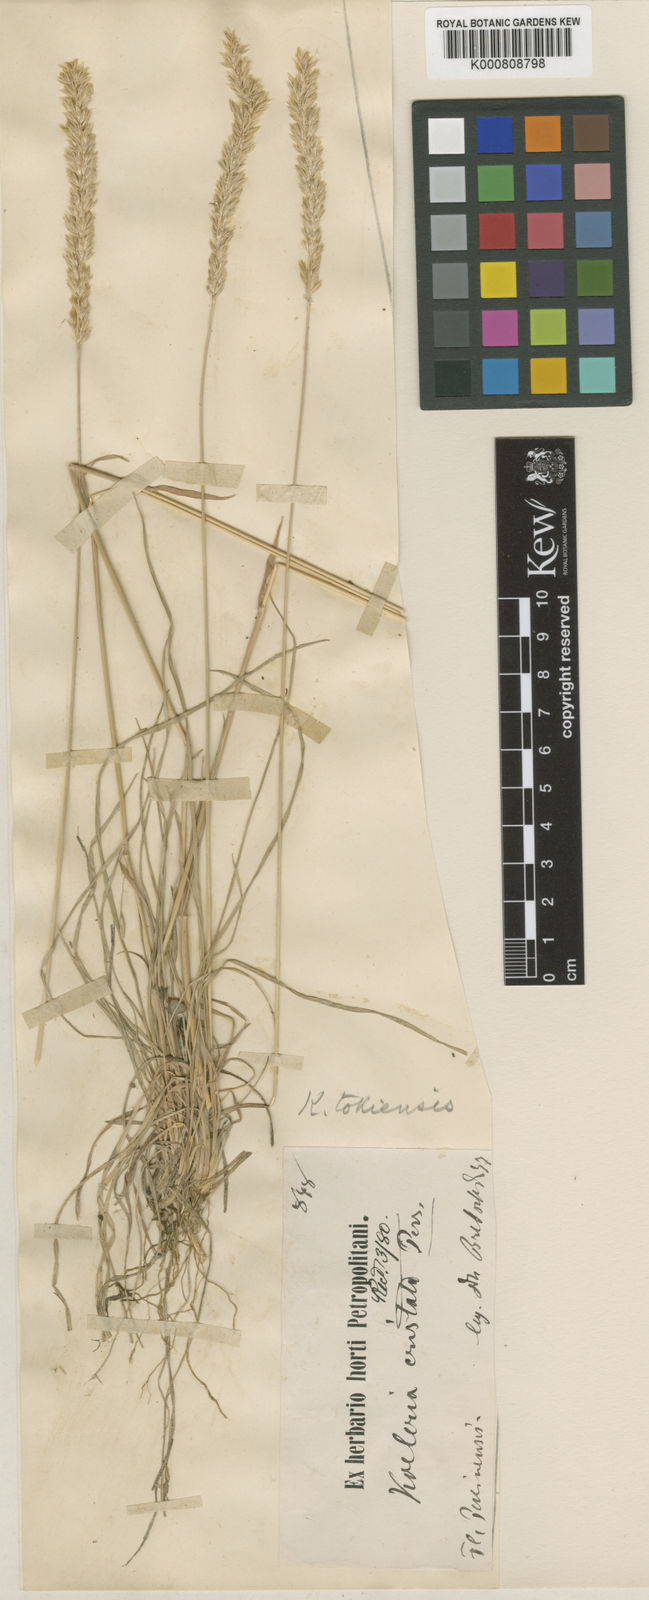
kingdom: Plantae
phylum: Tracheophyta
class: Liliopsida
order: Poales
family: Poaceae
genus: Koeleria
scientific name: Koeleria macrantha
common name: Crested hair-grass
